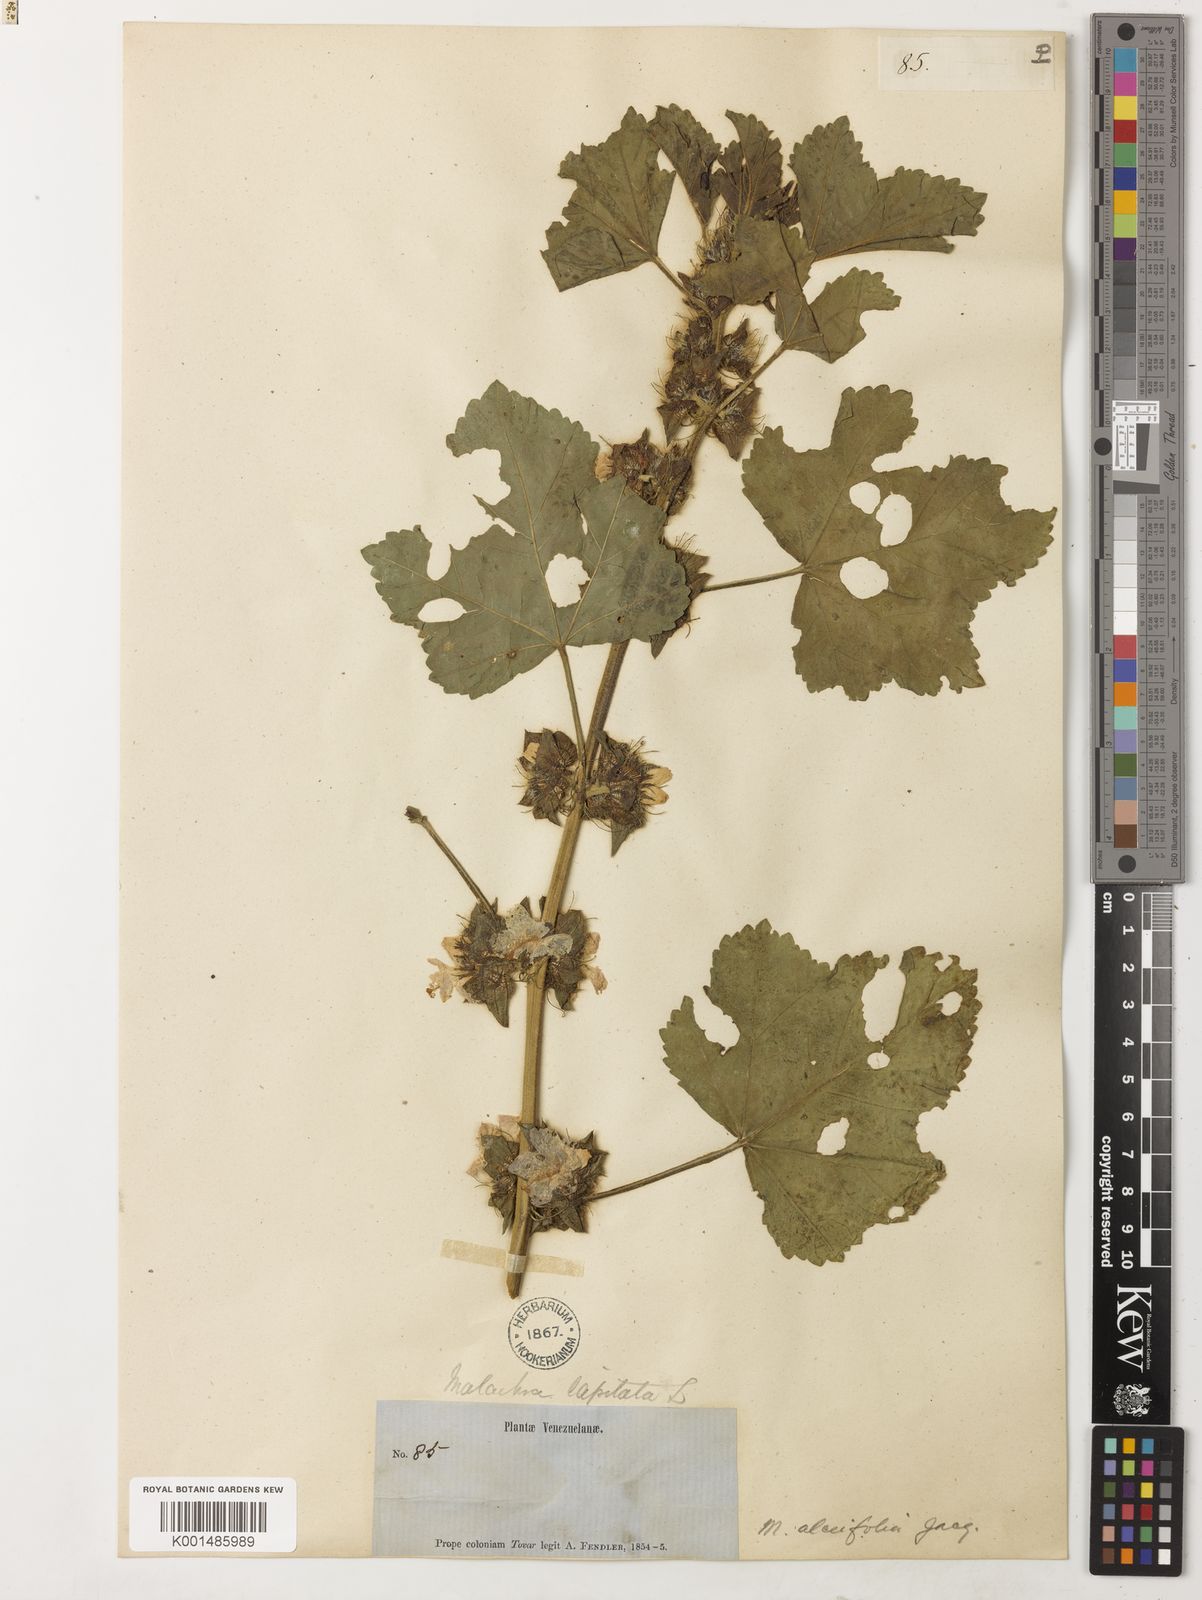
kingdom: Plantae
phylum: Tracheophyta
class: Magnoliopsida
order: Malvales
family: Malvaceae
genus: Malachra
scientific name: Malachra alceifolia
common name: Yellow leafbract
